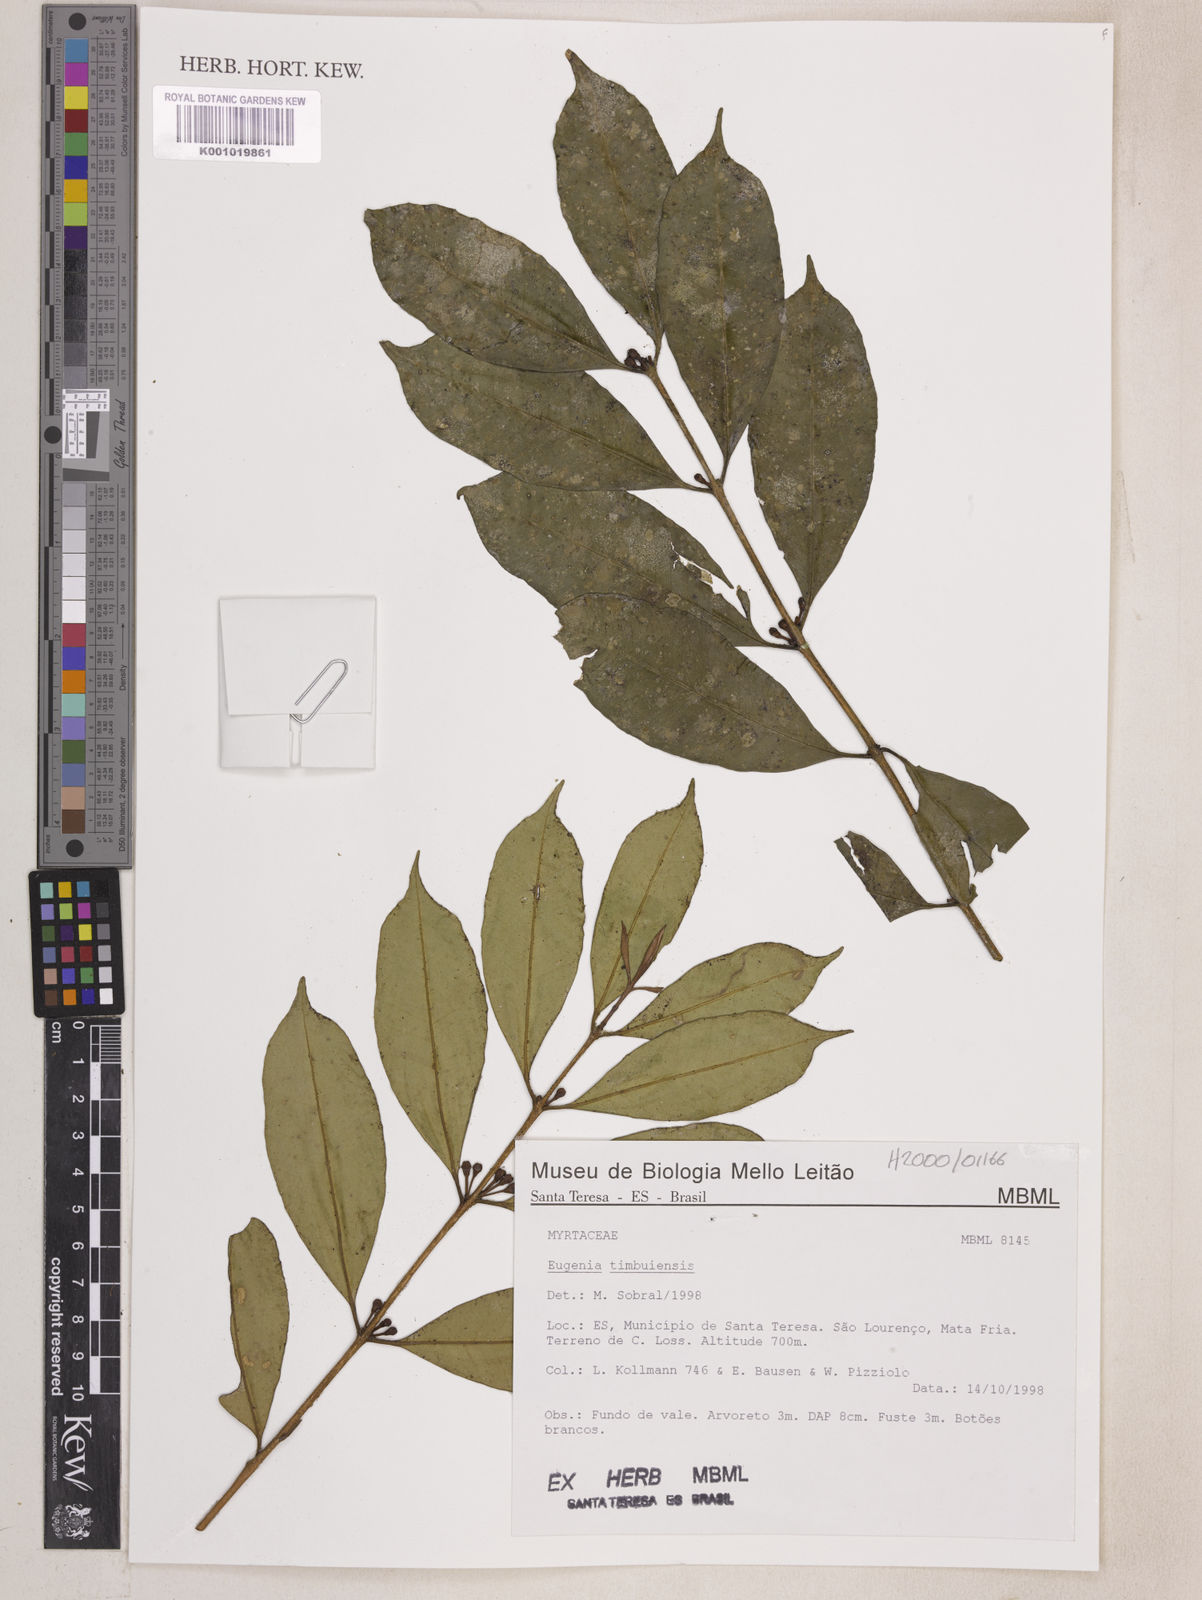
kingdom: Plantae
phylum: Tracheophyta
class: Magnoliopsida
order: Myrtales
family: Myrtaceae
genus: Eugenia
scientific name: Eugenia pisiformis
